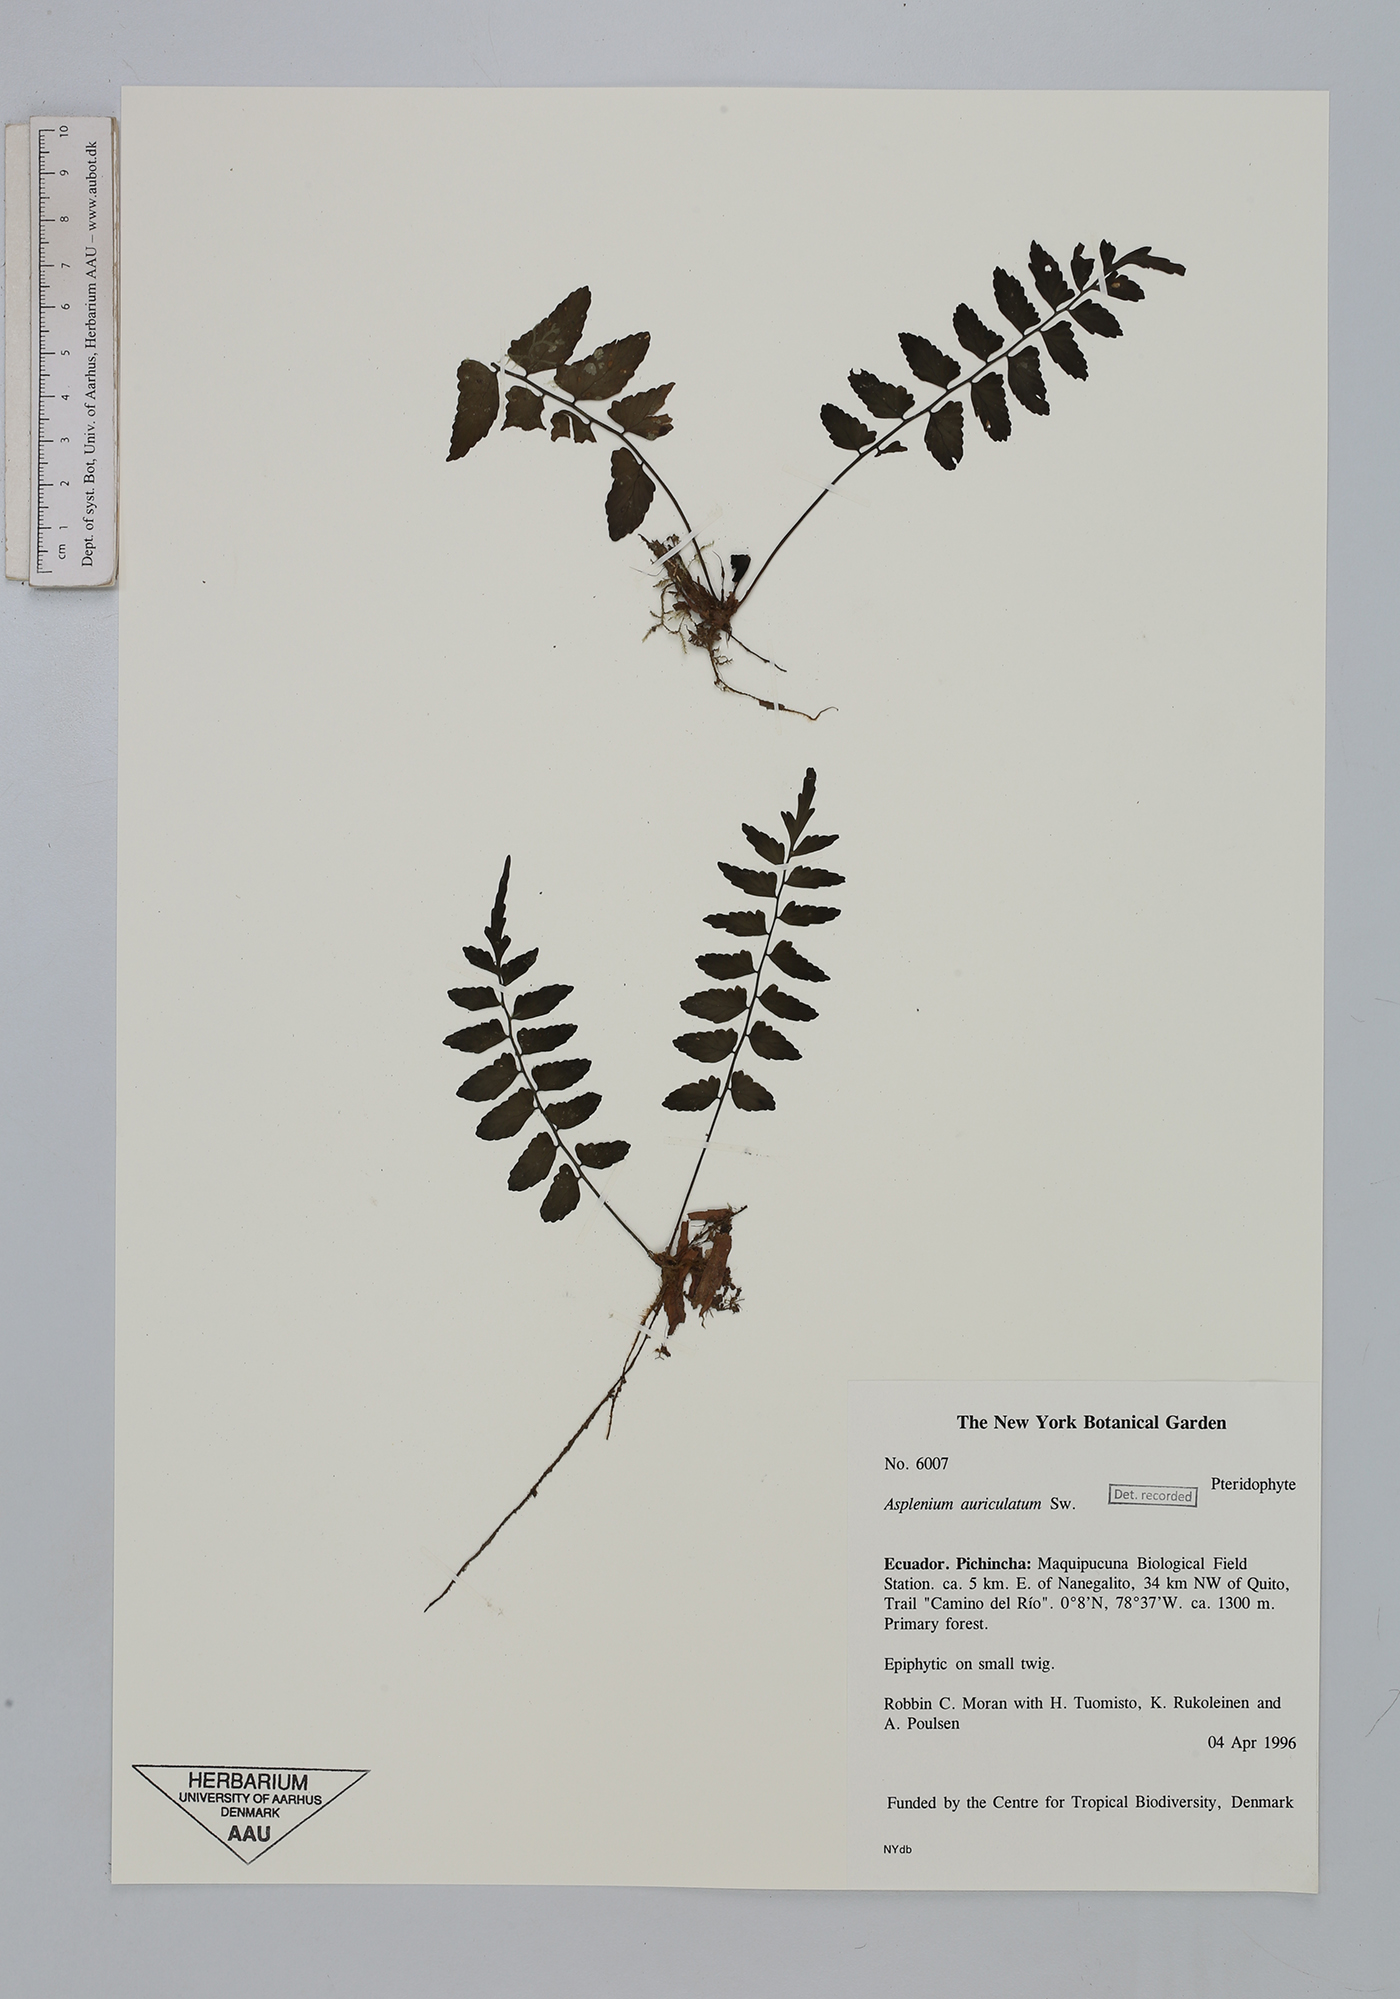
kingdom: Plantae
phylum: Tracheophyta
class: Polypodiopsida
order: Polypodiales
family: Aspleniaceae
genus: Asplenium
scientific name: Asplenium auriculatum
